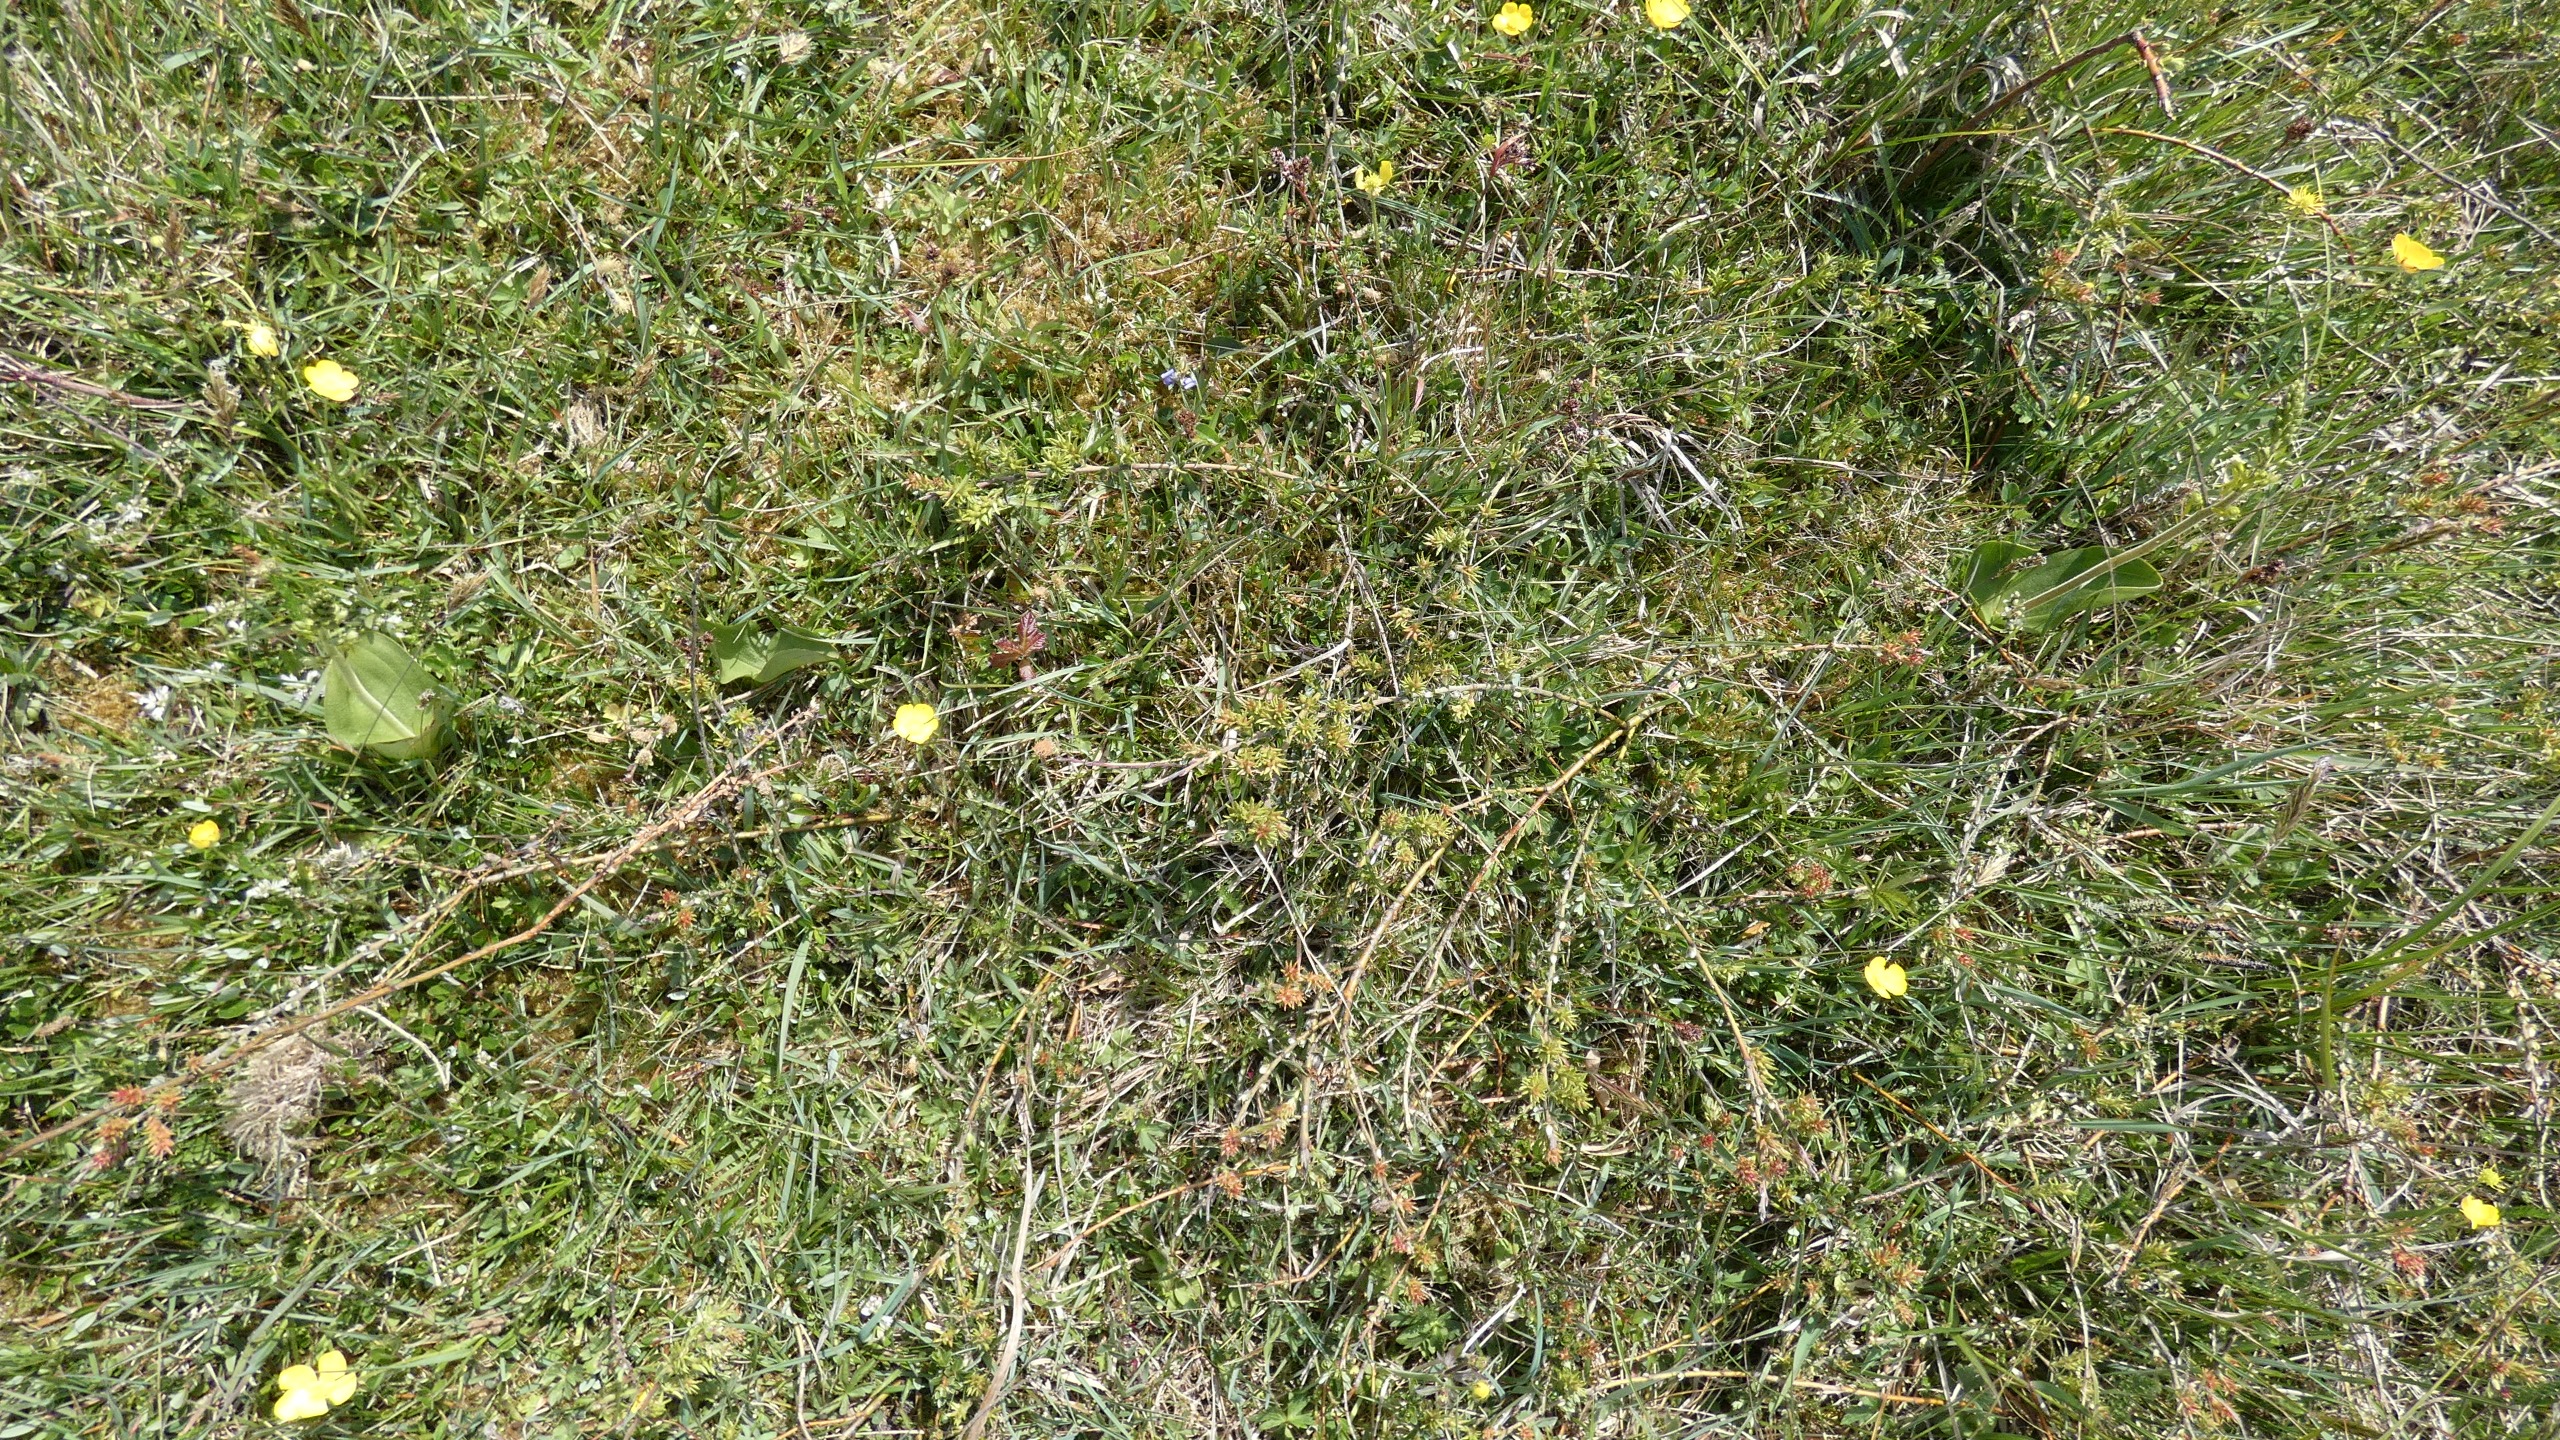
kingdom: Plantae
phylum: Tracheophyta
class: Liliopsida
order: Asparagales
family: Orchidaceae
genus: Neottia
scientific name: Neottia ovata
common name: Ægbladet fliglæbe
